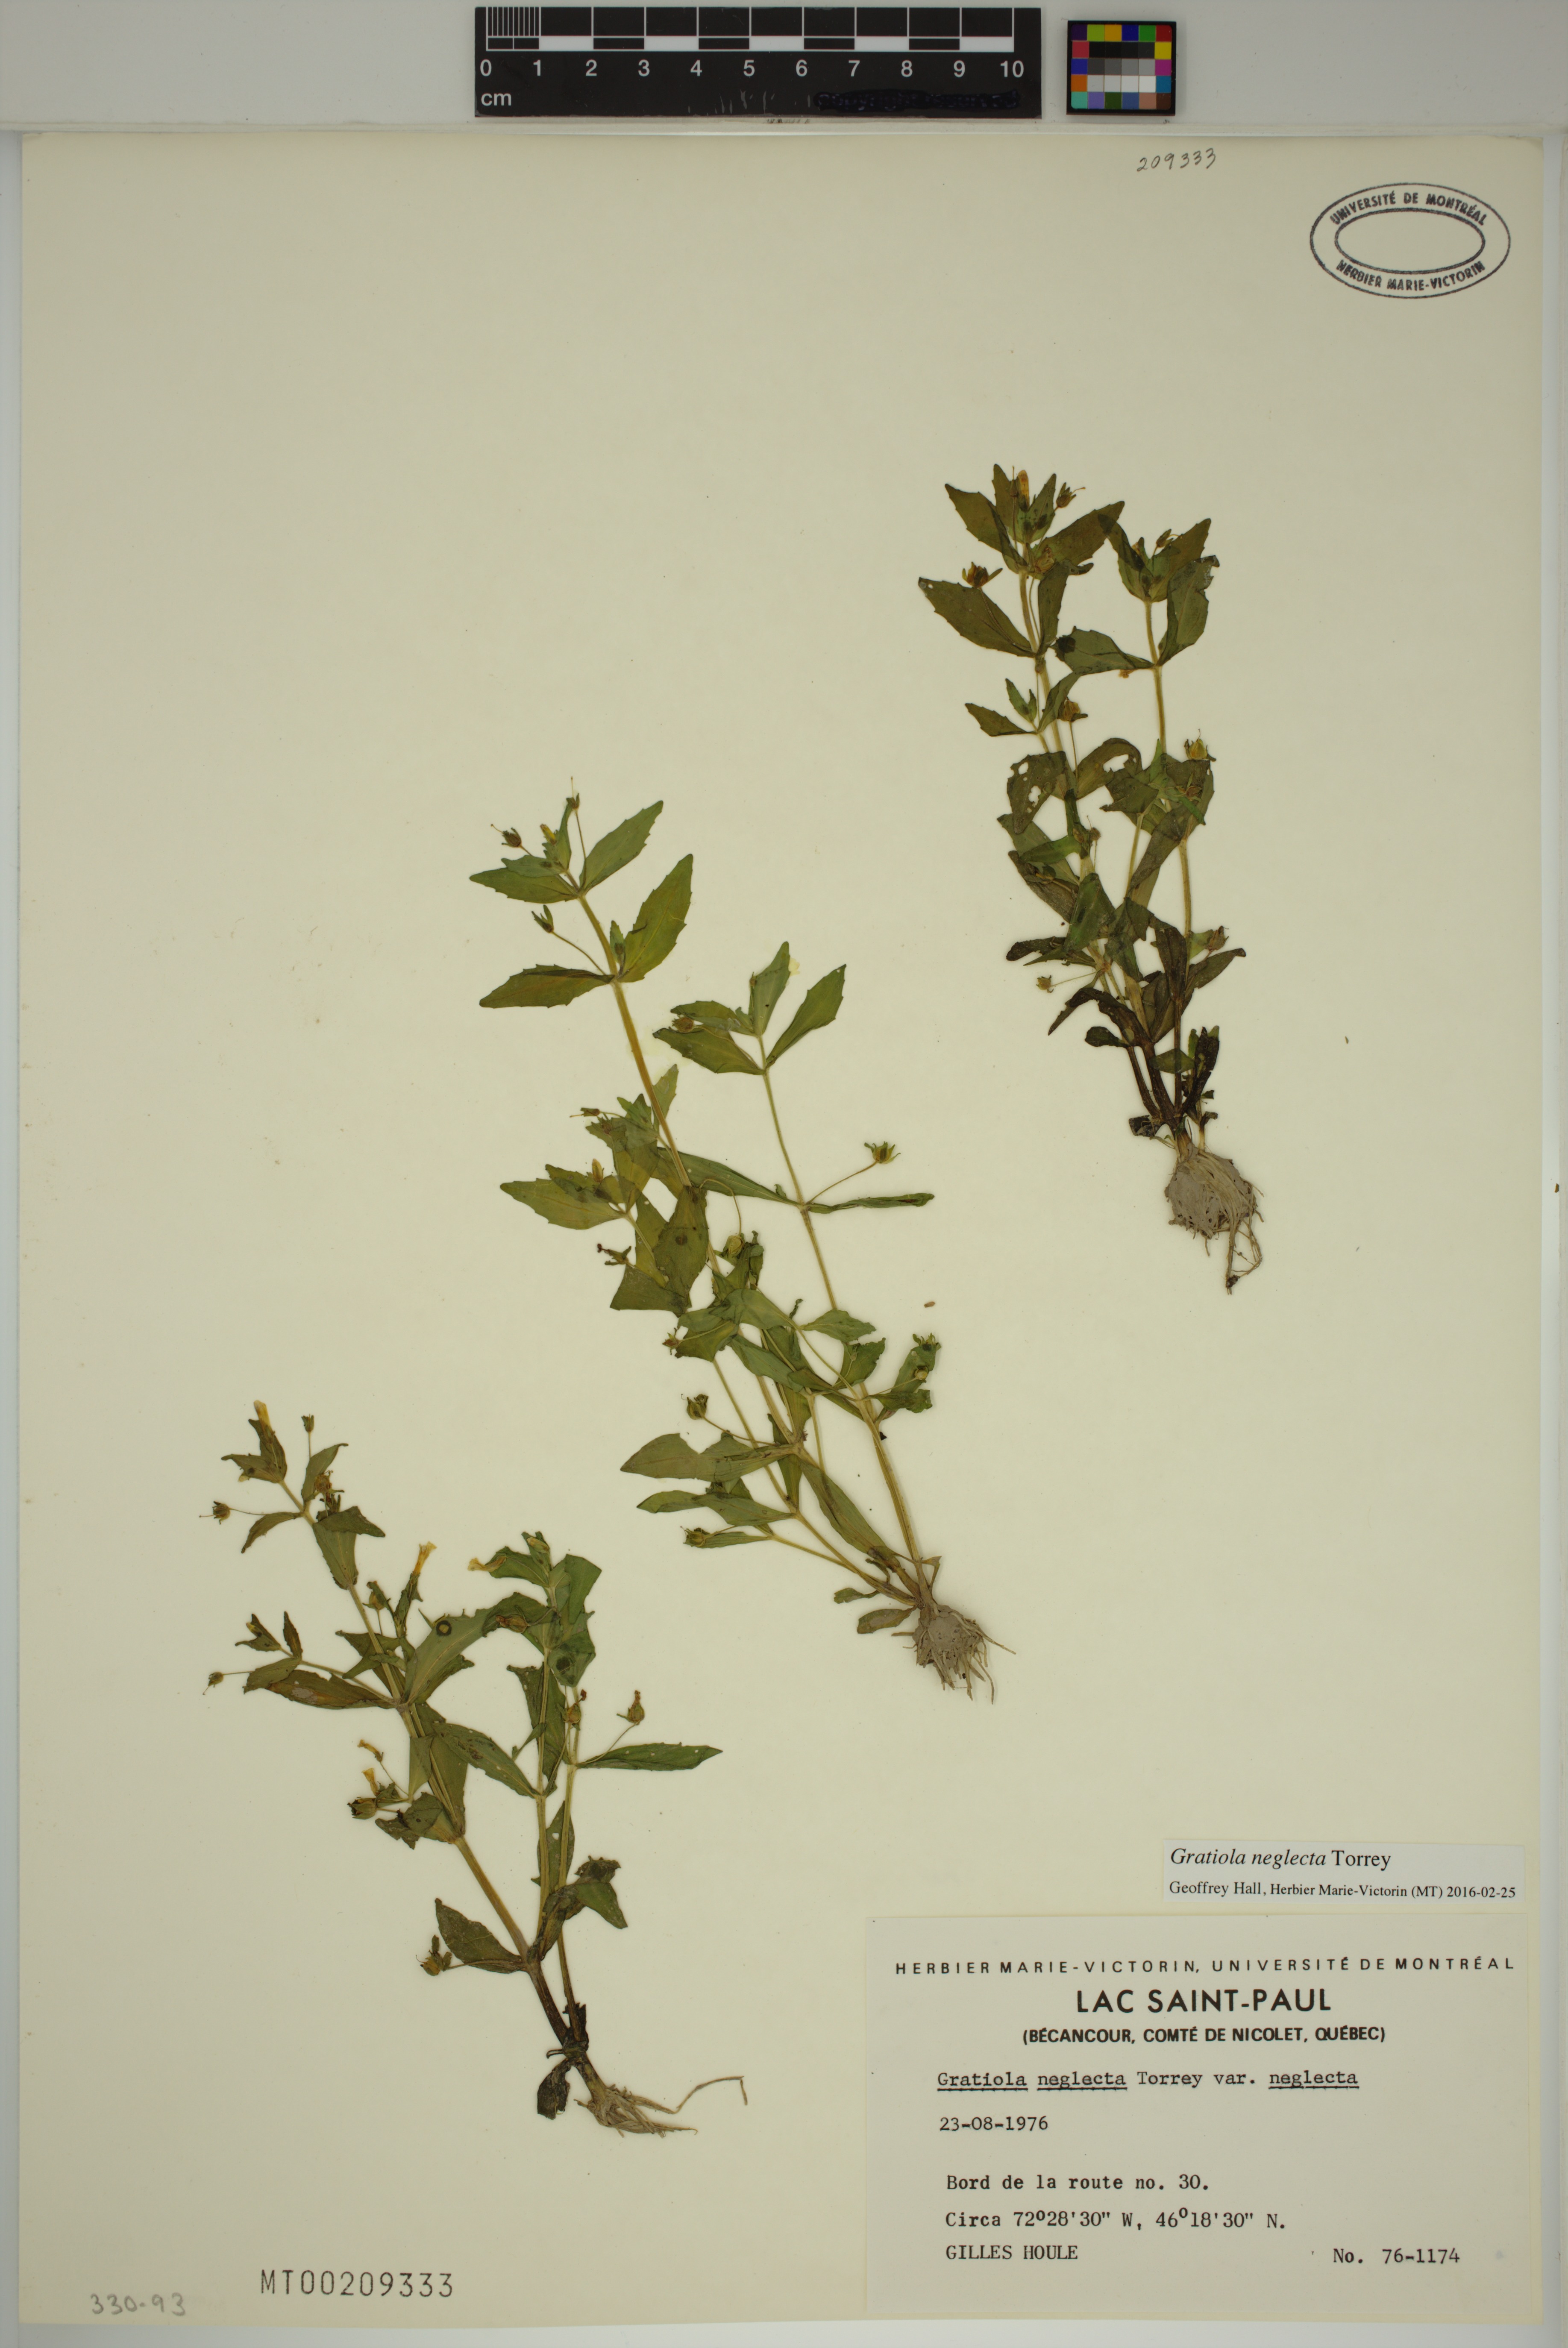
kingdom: Plantae
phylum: Tracheophyta
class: Magnoliopsida
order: Lamiales
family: Plantaginaceae
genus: Gratiola
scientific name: Gratiola neglecta
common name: American hedge-hyssop
